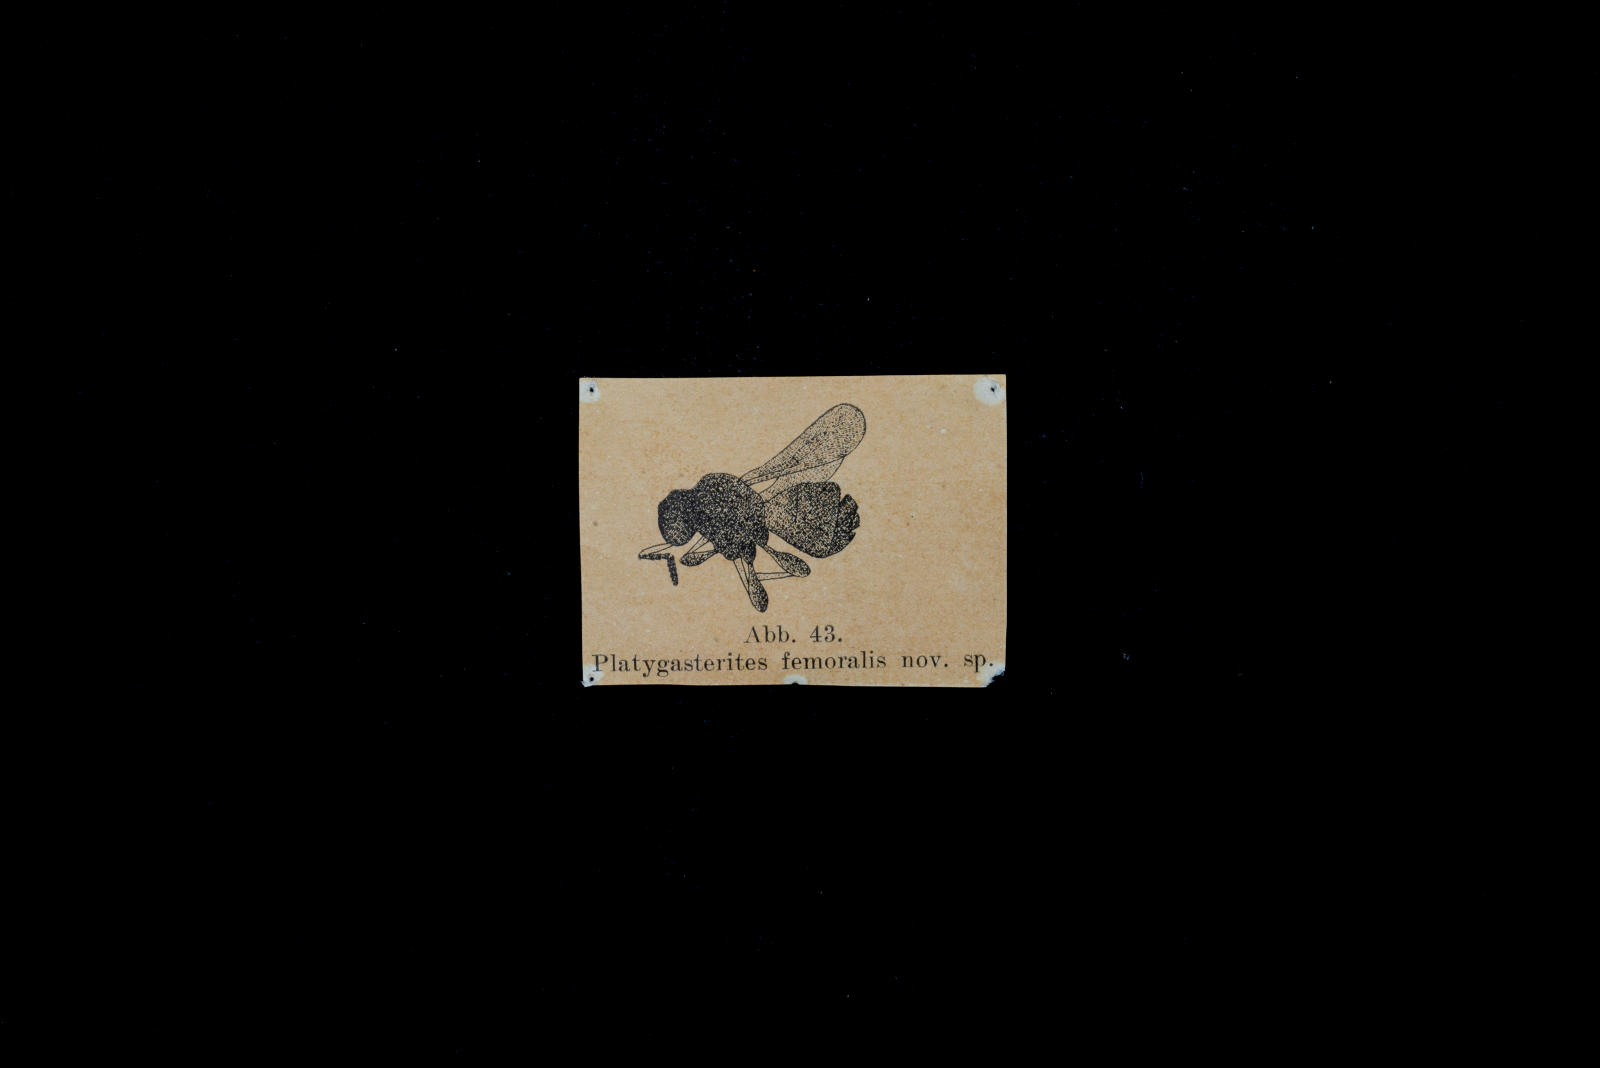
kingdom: Animalia
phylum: Arthropoda
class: Insecta
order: Hymenoptera
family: Platygastridae
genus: Platygasterites
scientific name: Platygasterites femoralis
